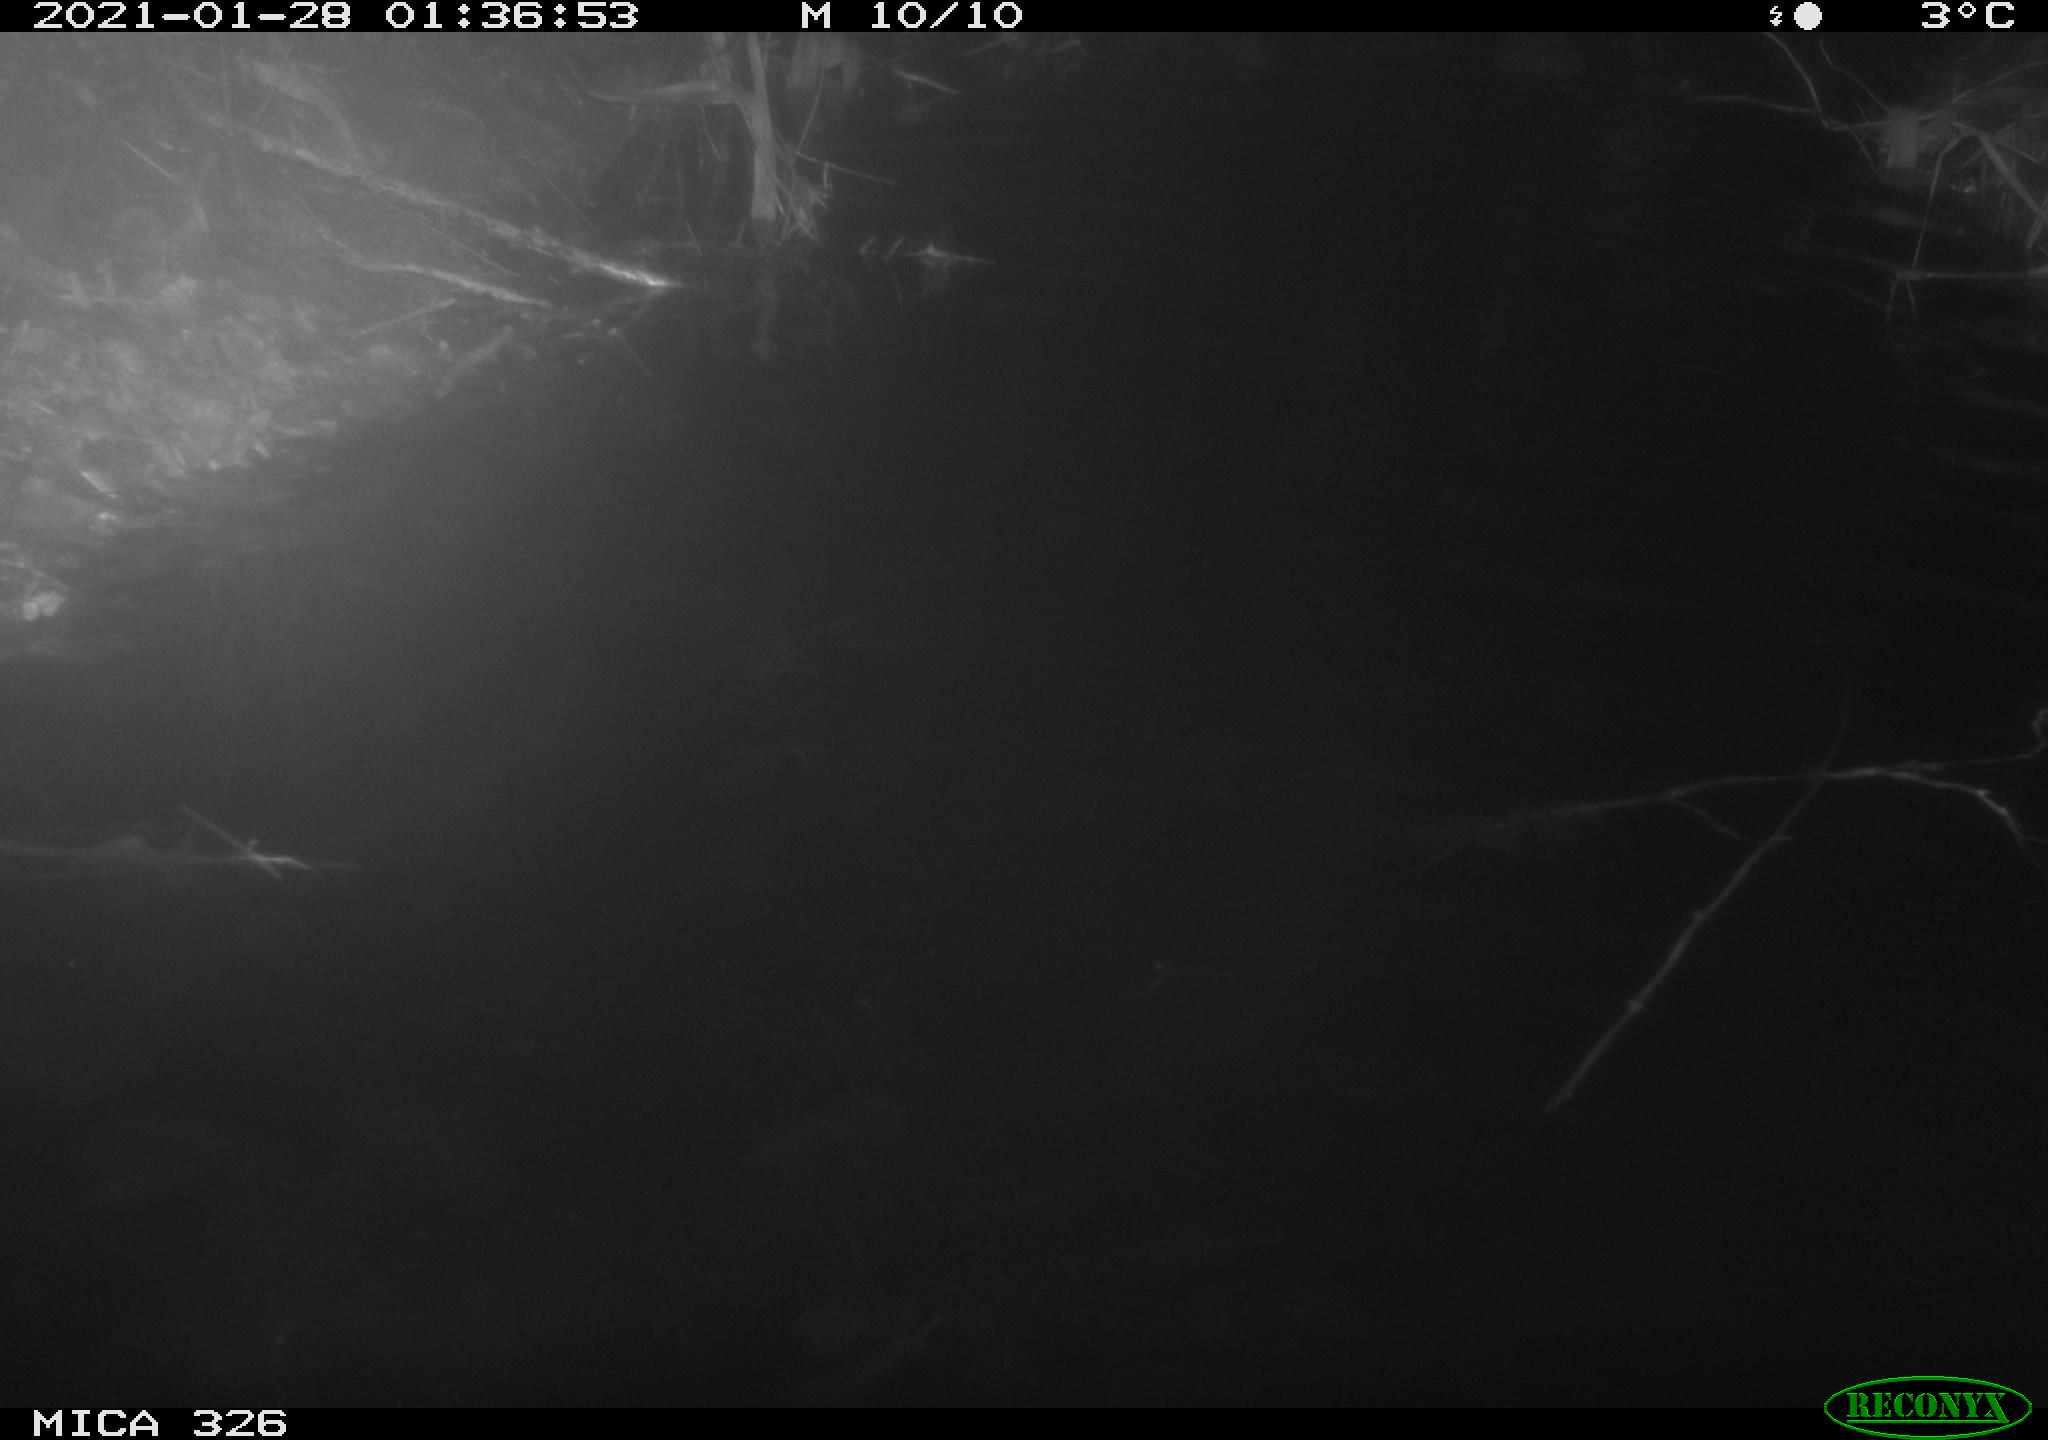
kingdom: Animalia
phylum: Chordata
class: Mammalia
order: Rodentia
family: Cricetidae
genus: Ondatra
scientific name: Ondatra zibethicus
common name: Muskrat
